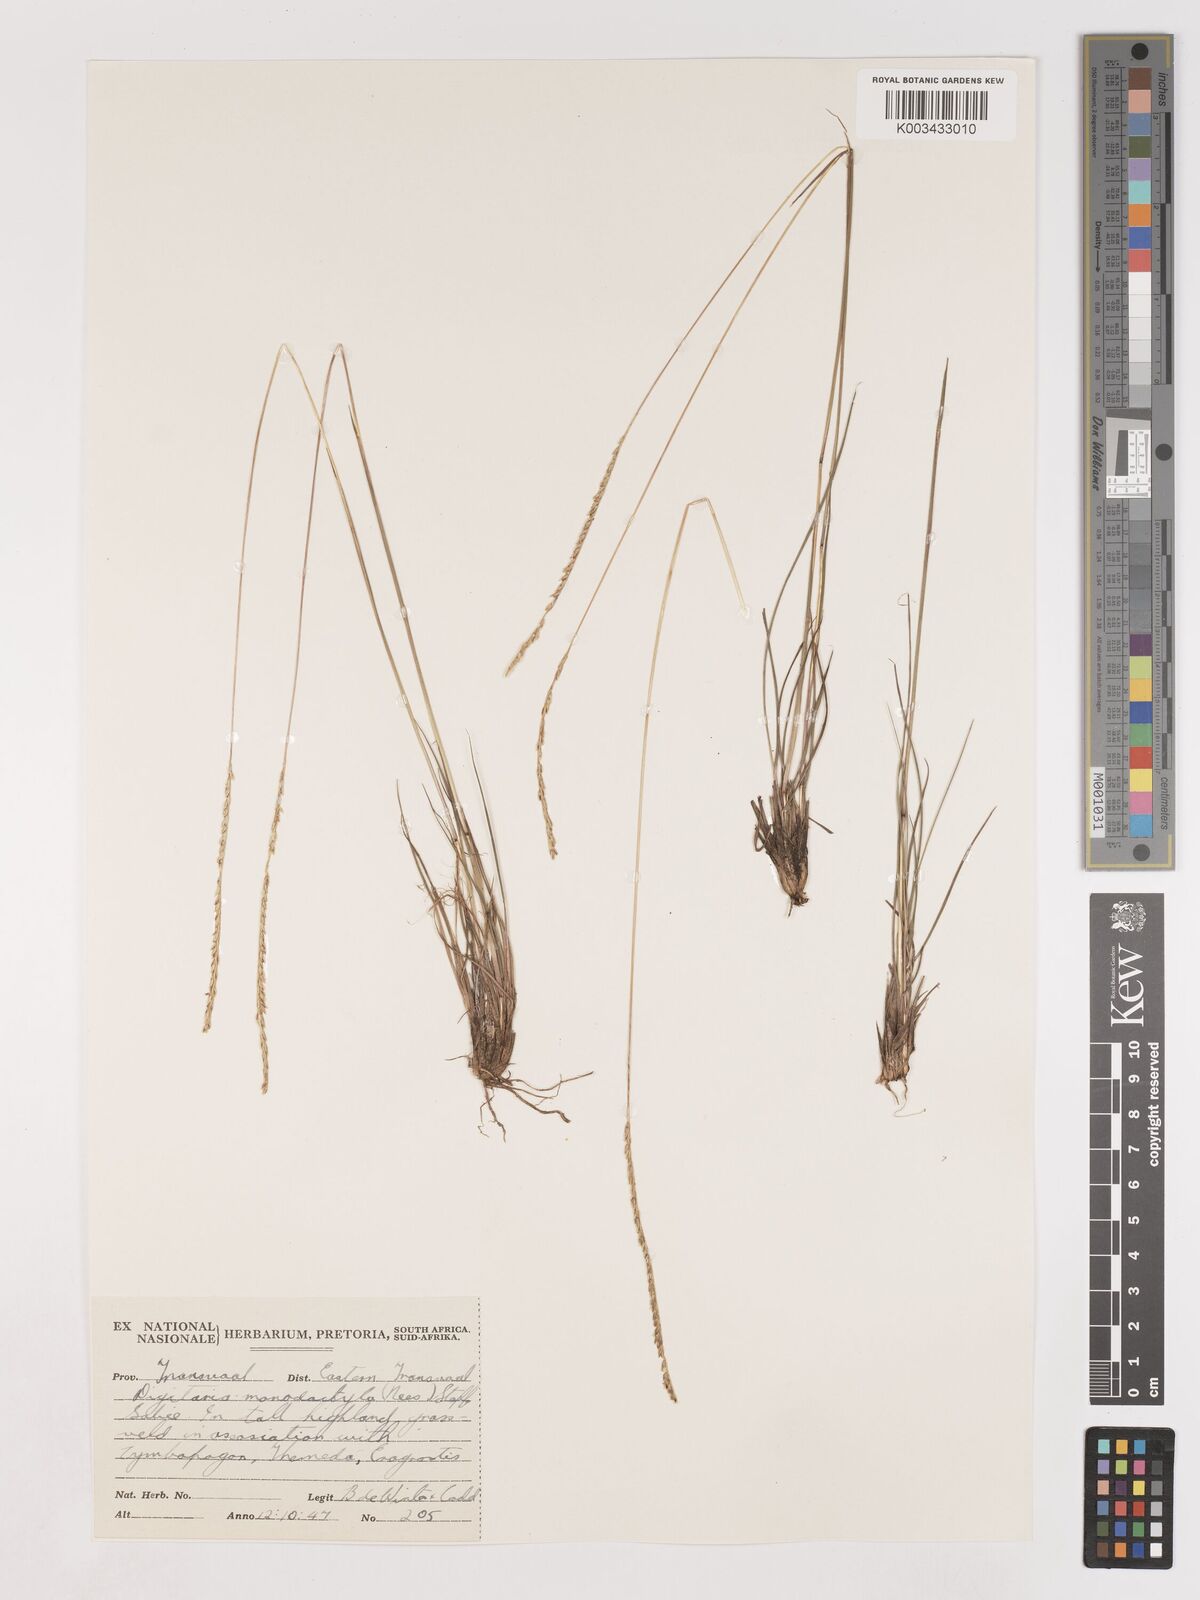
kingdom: Plantae
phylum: Tracheophyta
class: Liliopsida
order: Poales
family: Poaceae
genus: Digitaria
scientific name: Digitaria monodactyla
